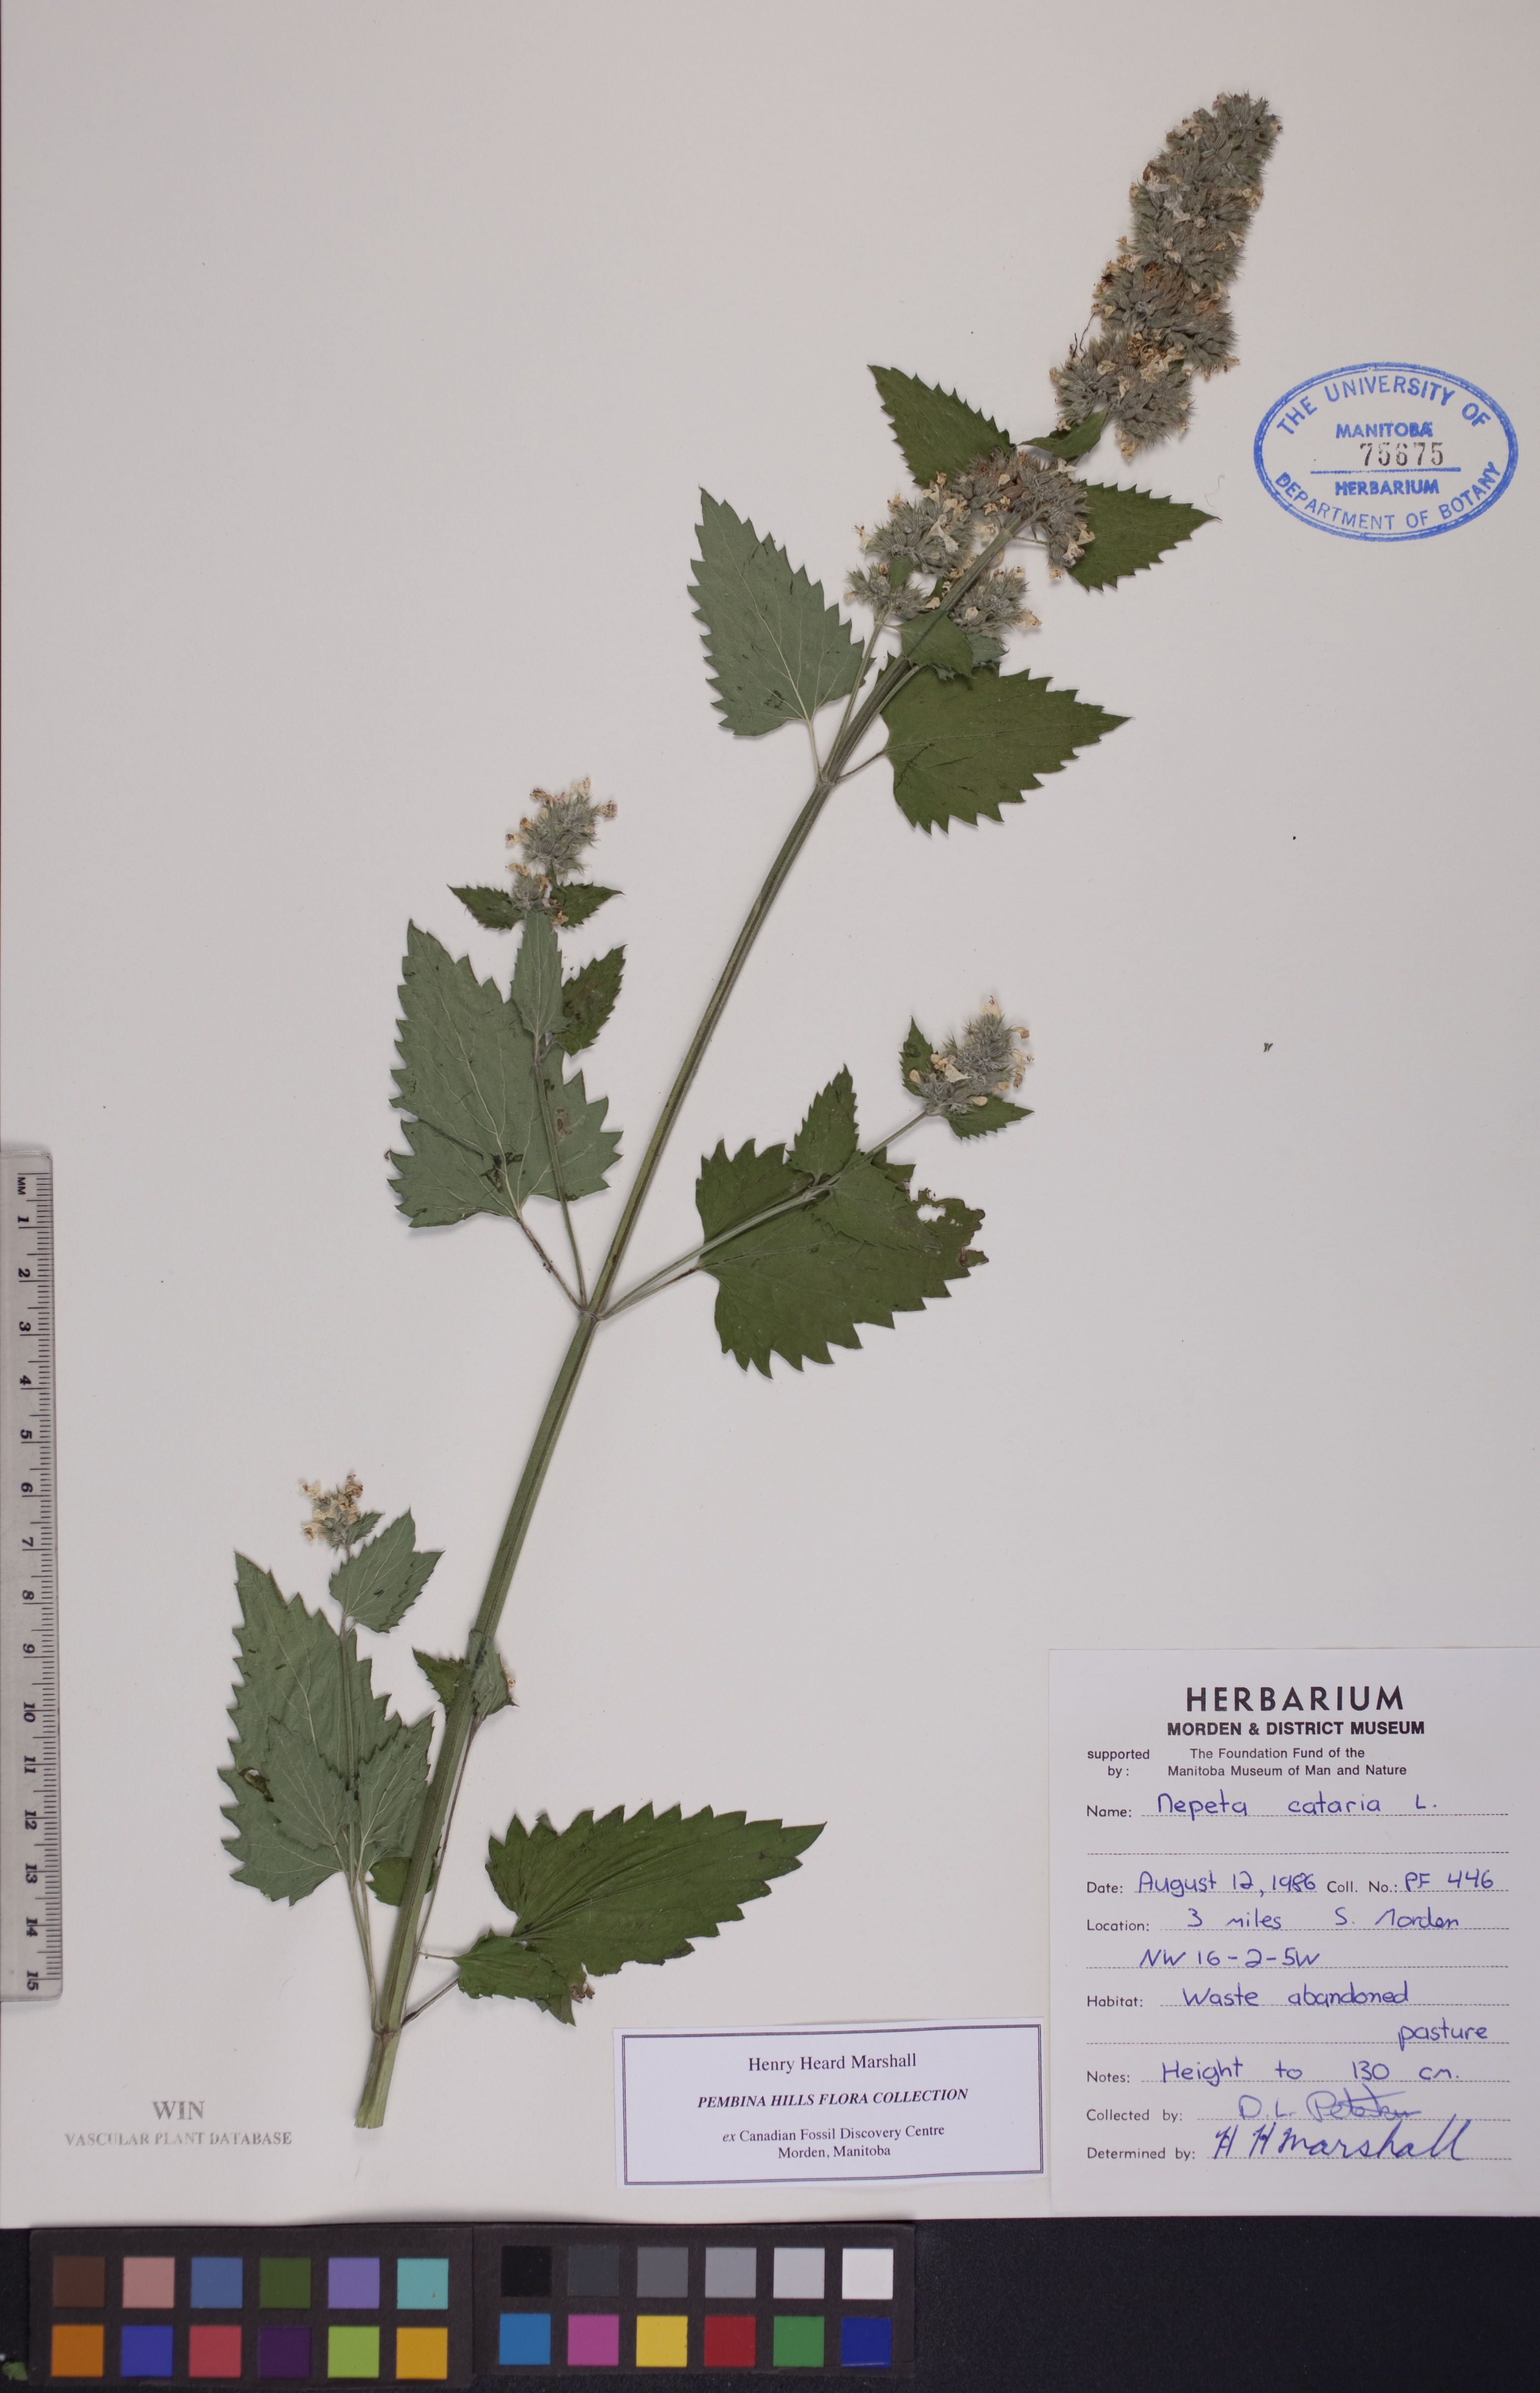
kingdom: Plantae
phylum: Tracheophyta
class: Magnoliopsida
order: Lamiales
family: Lamiaceae
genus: Nepeta
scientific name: Nepeta cataria
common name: Catnip
